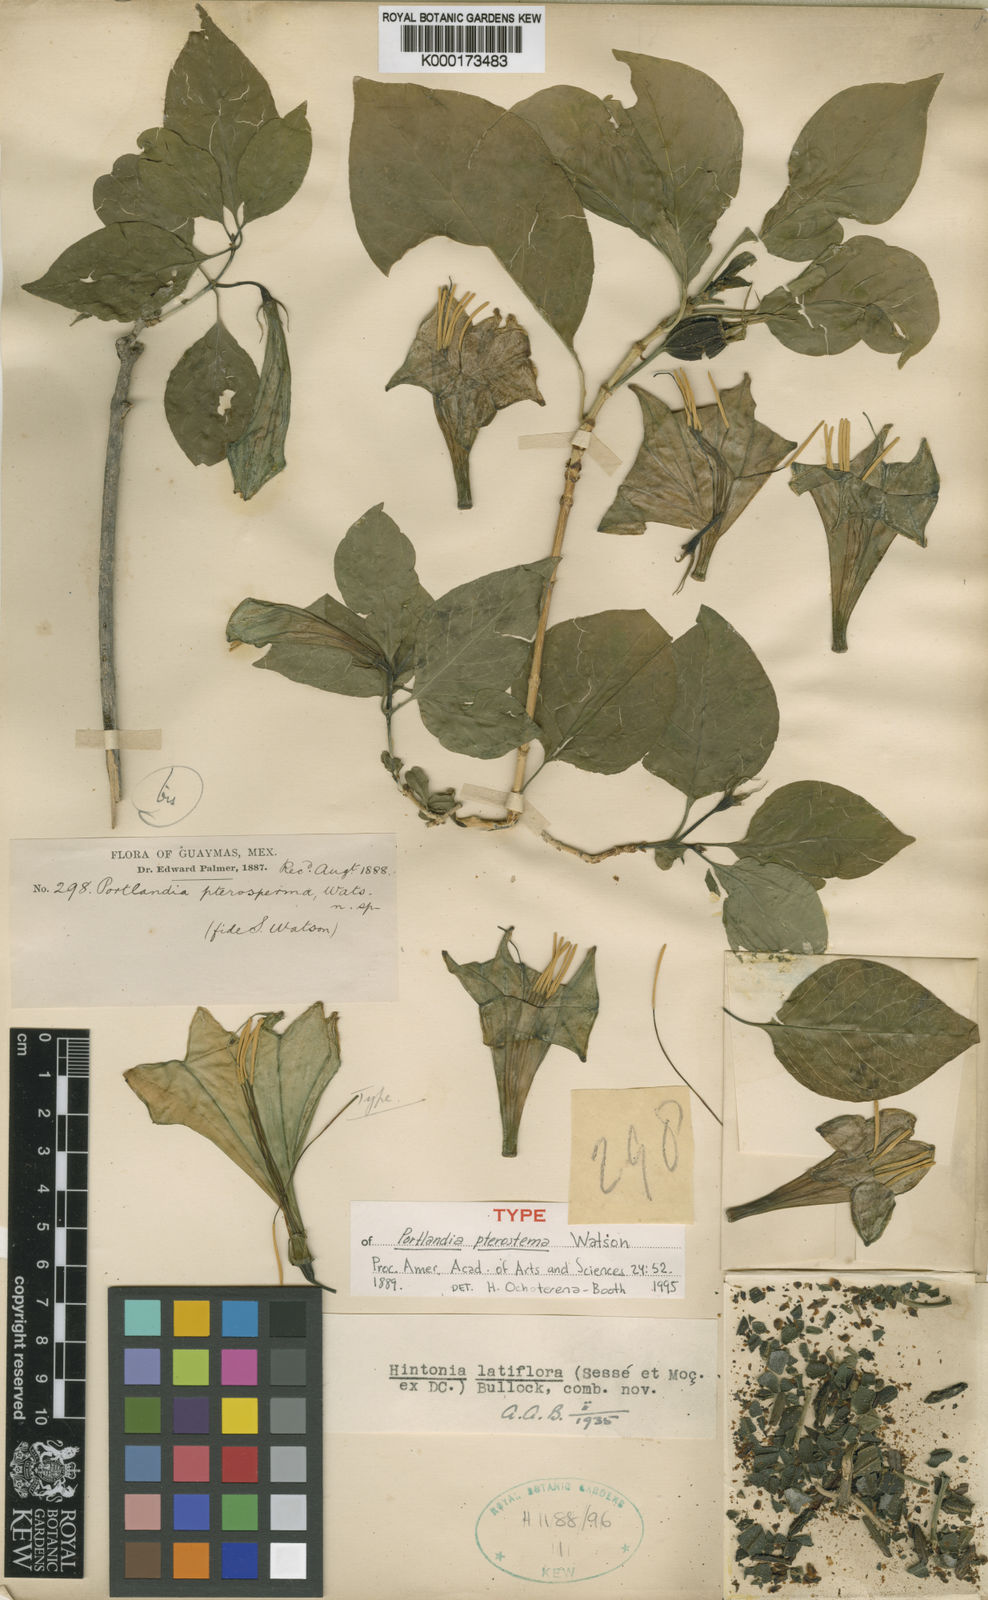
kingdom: Plantae
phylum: Tracheophyta
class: Magnoliopsida
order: Gentianales
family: Rubiaceae
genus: Hintonia
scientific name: Hintonia
